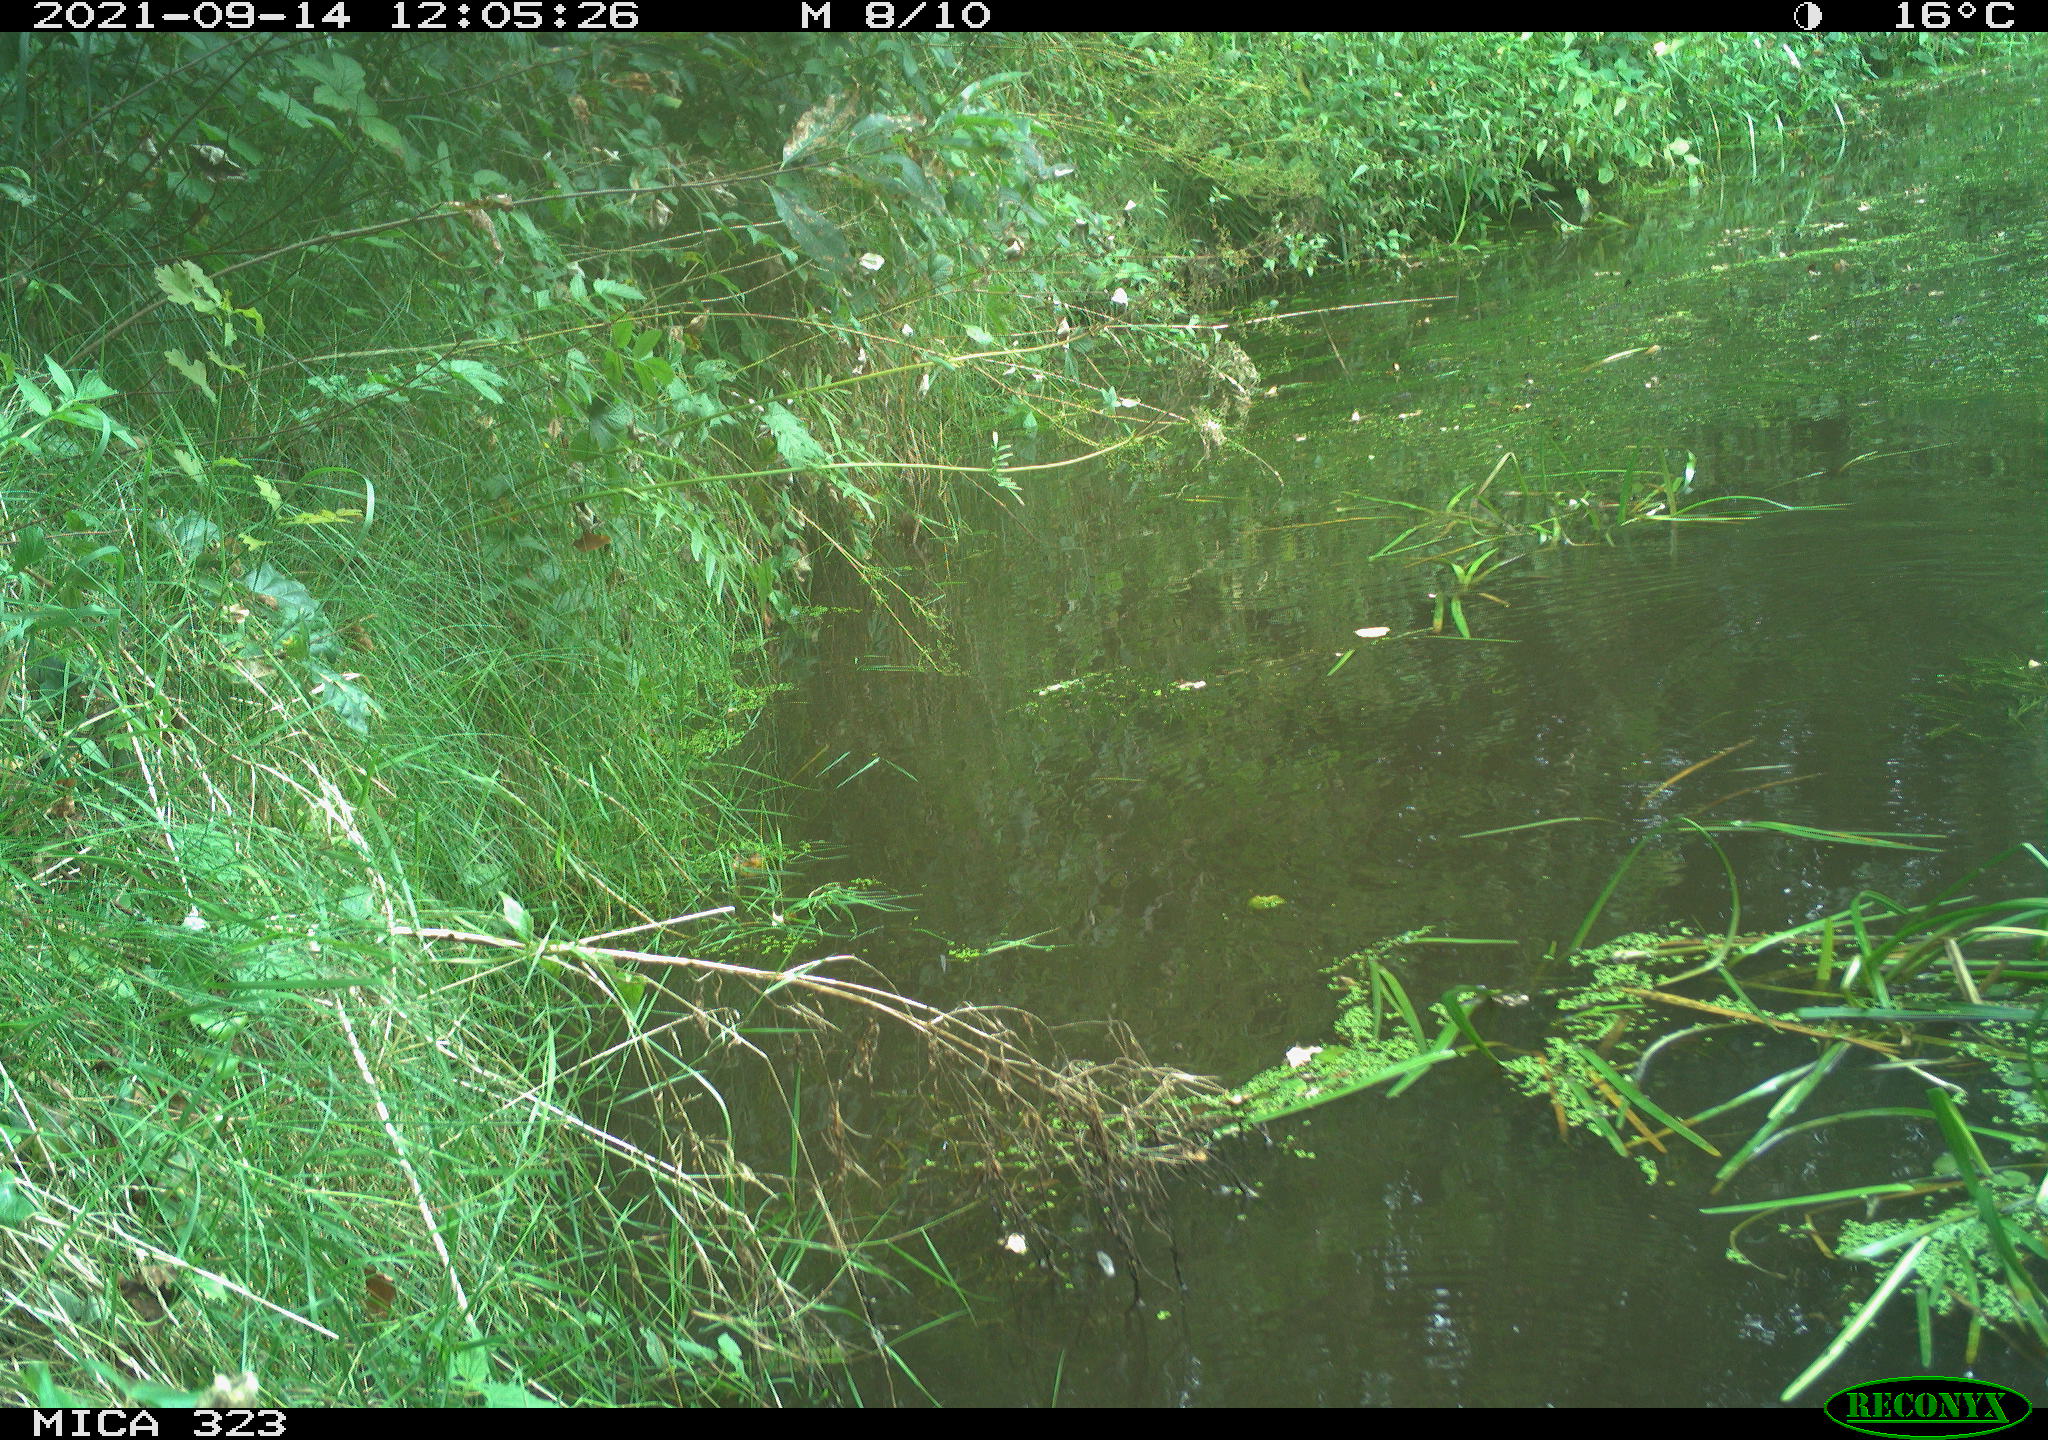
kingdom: Animalia
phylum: Chordata
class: Aves
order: Gruiformes
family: Rallidae
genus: Gallinula
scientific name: Gallinula chloropus
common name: Common moorhen
